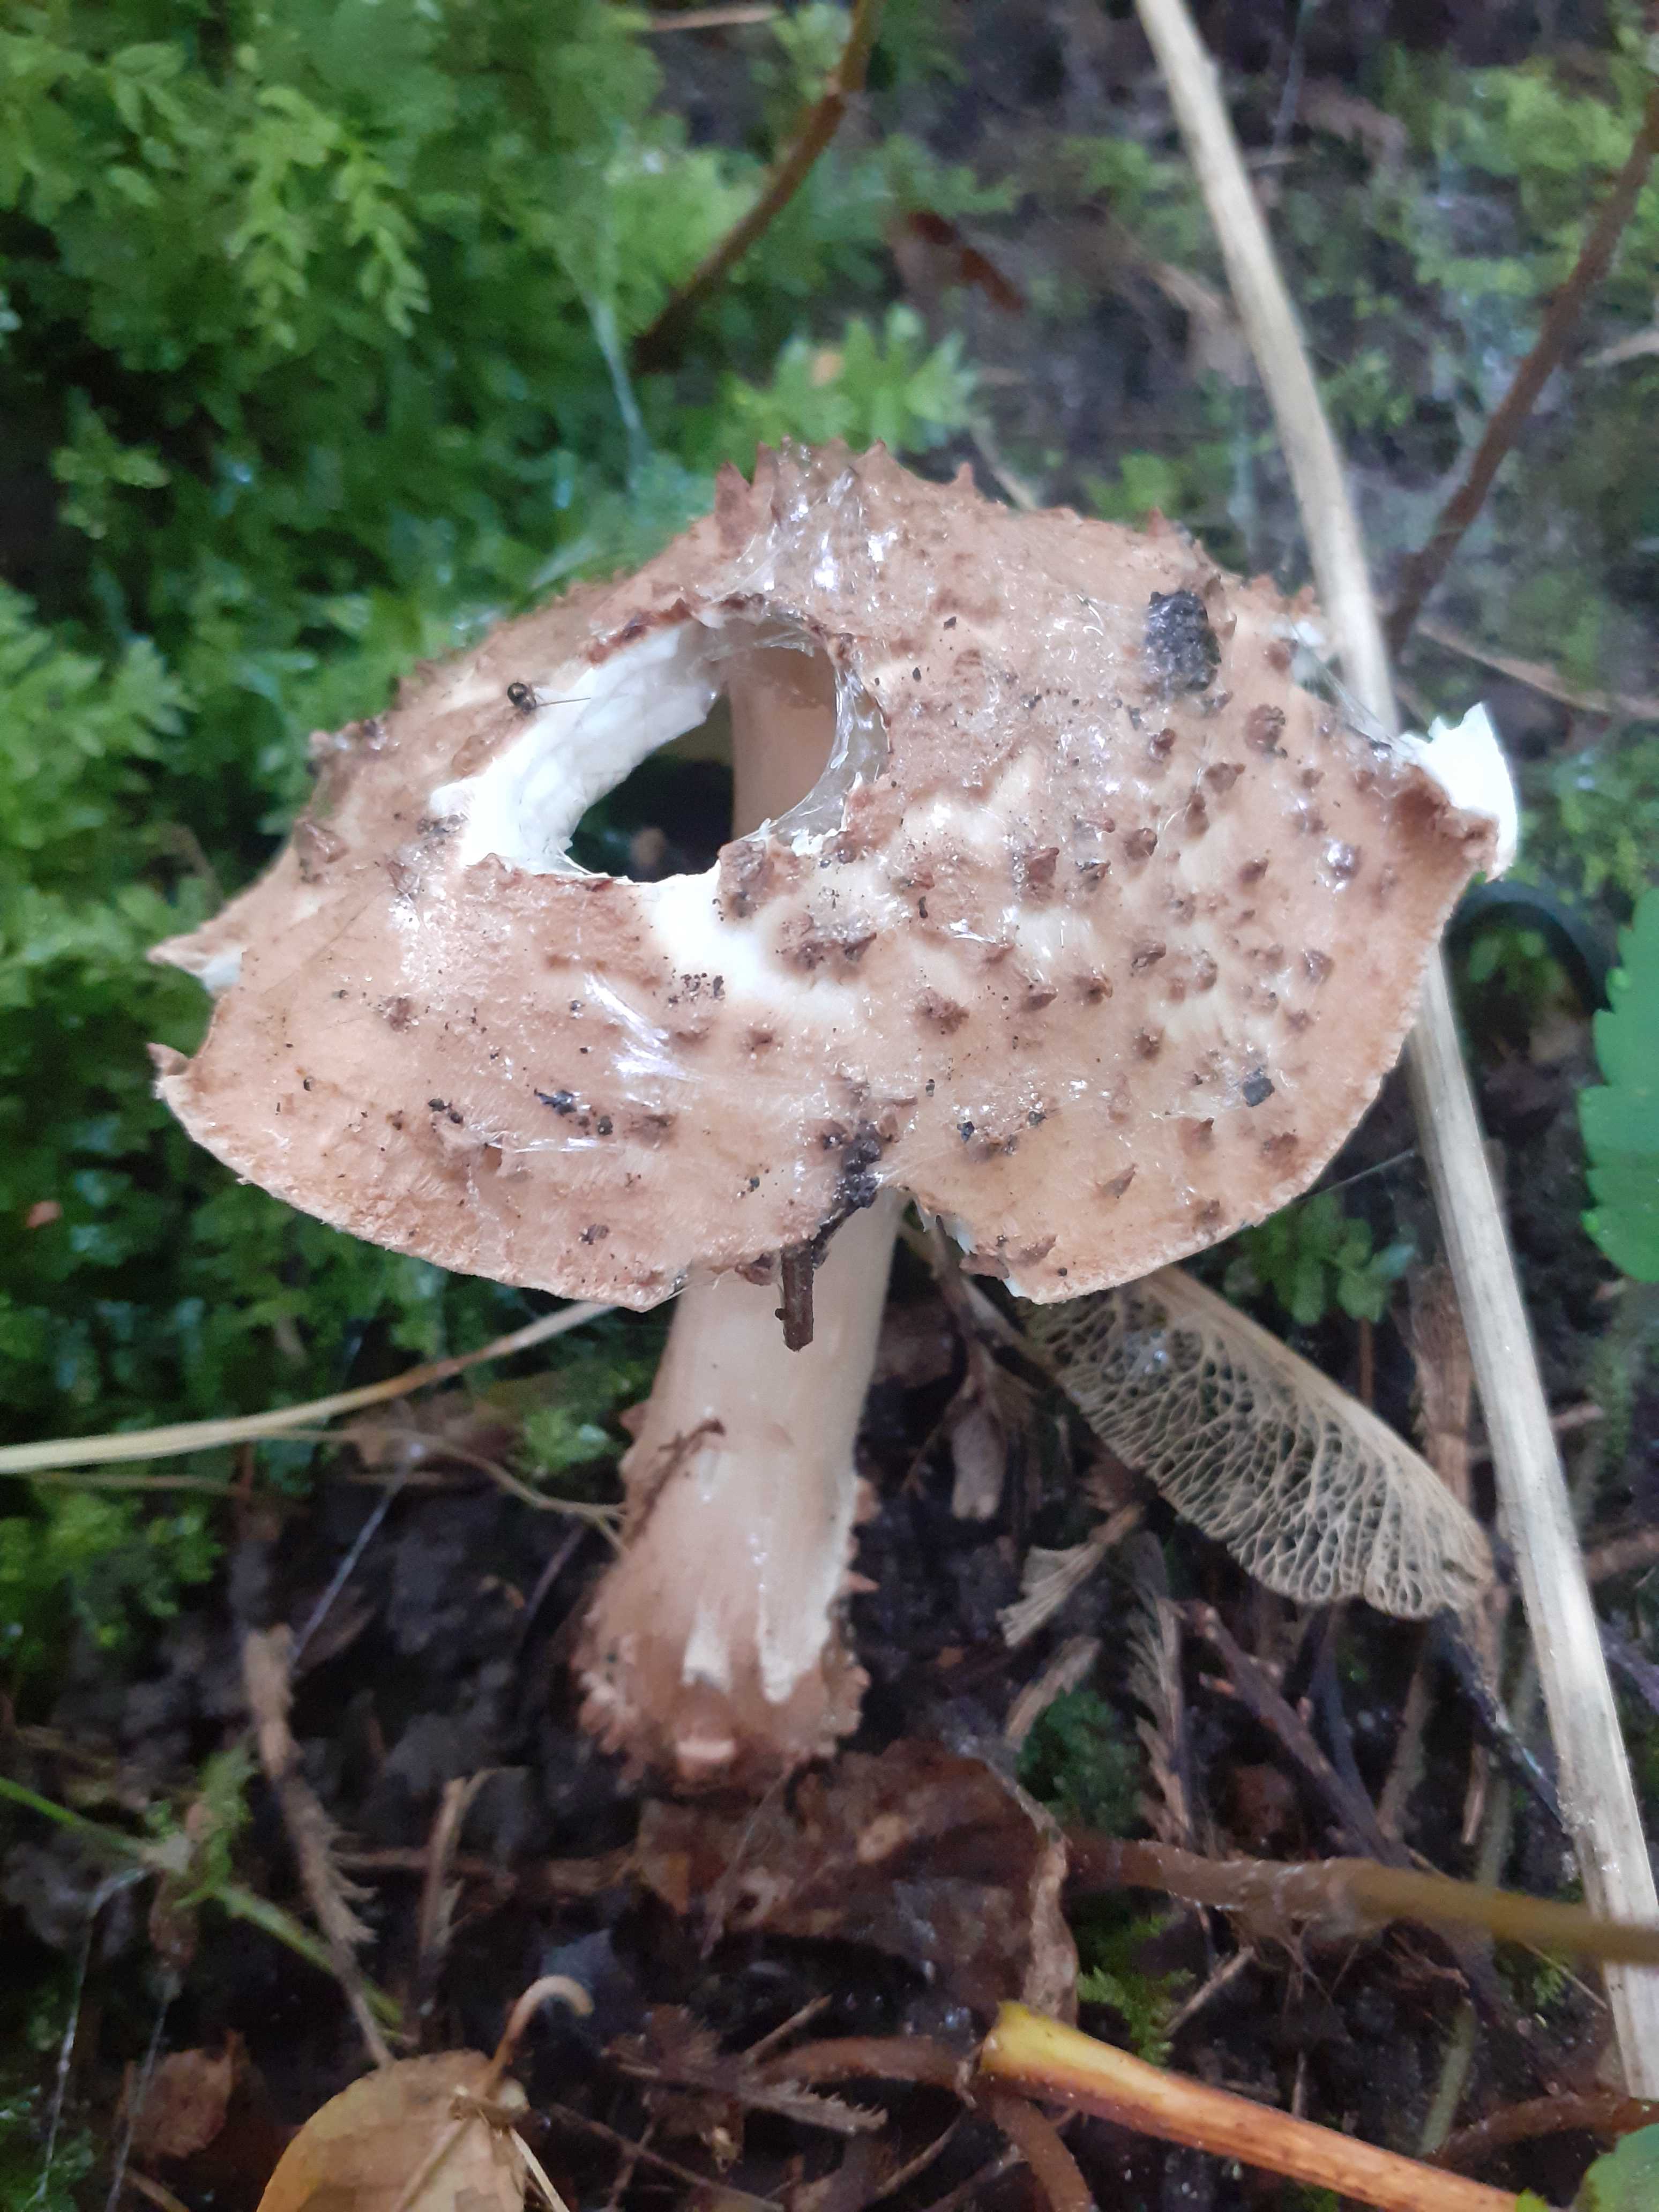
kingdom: Fungi
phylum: Basidiomycota
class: Agaricomycetes
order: Agaricales
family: Agaricaceae
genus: Echinoderma
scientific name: Echinoderma asperum
